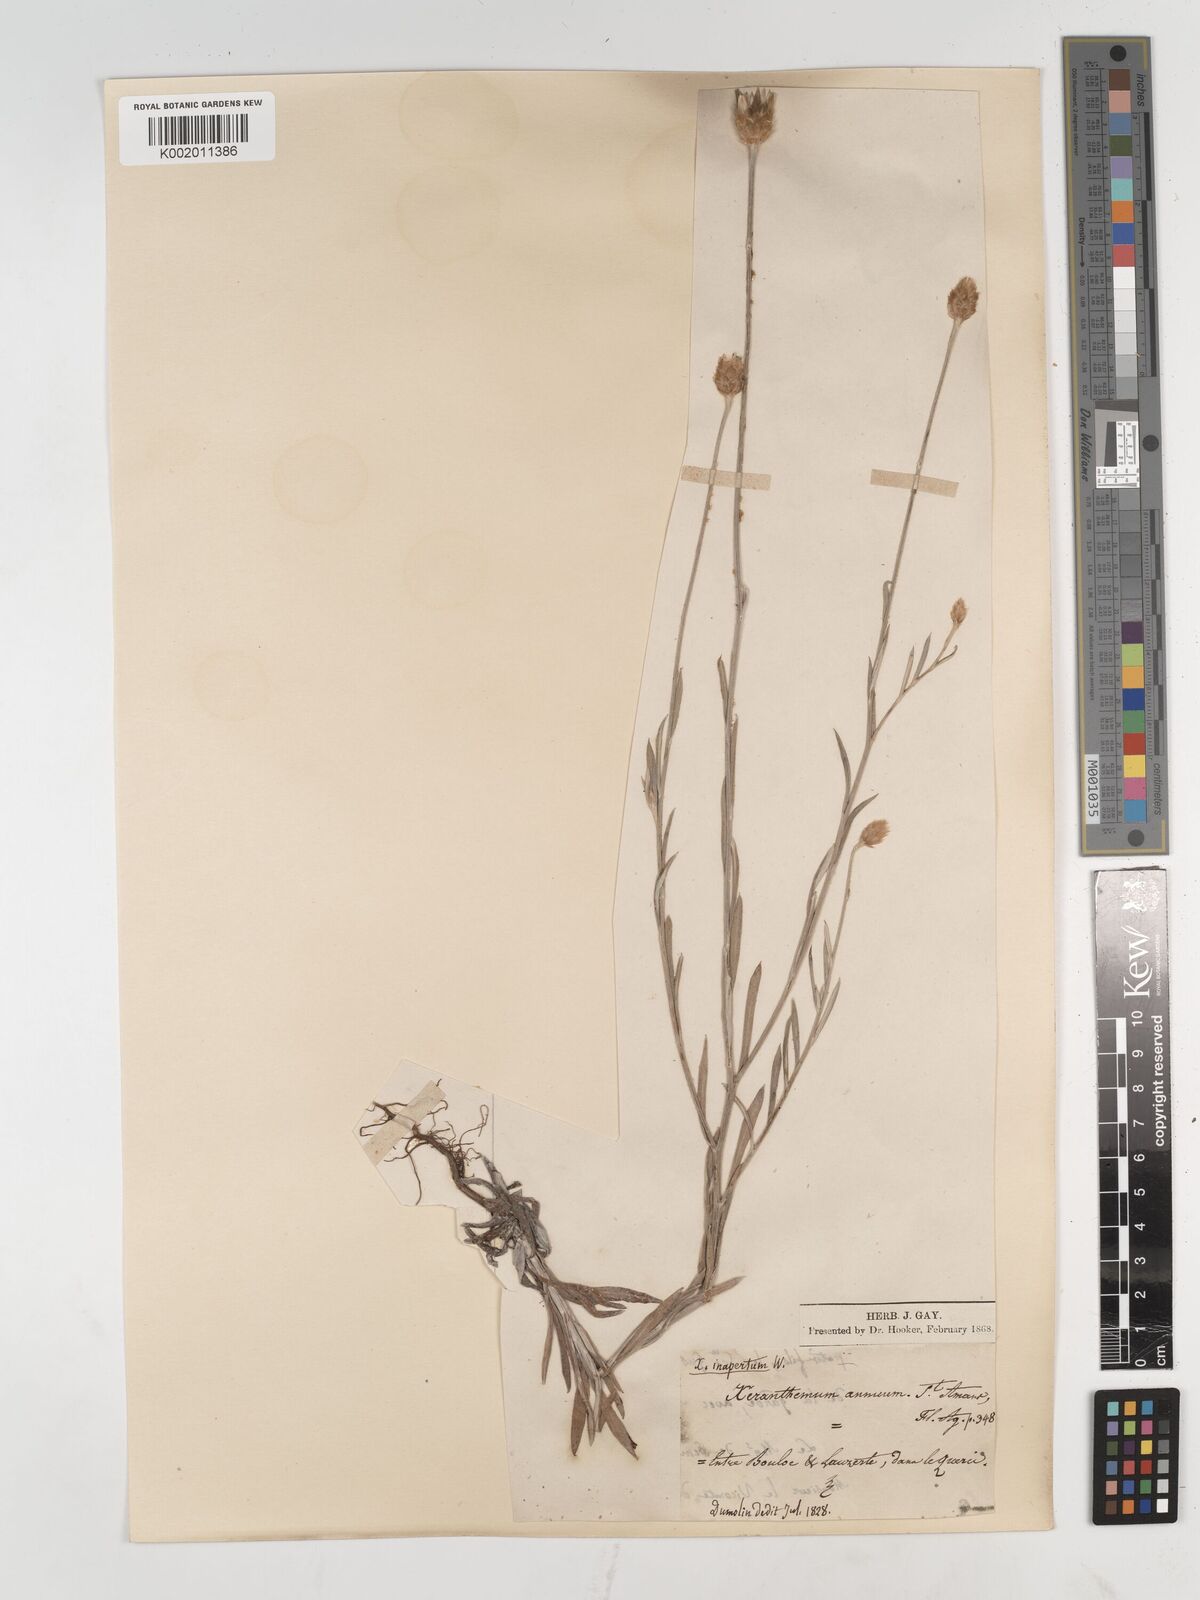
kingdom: Plantae
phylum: Tracheophyta
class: Magnoliopsida
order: Asterales
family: Asteraceae
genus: Xeranthemum
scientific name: Xeranthemum inapertum
